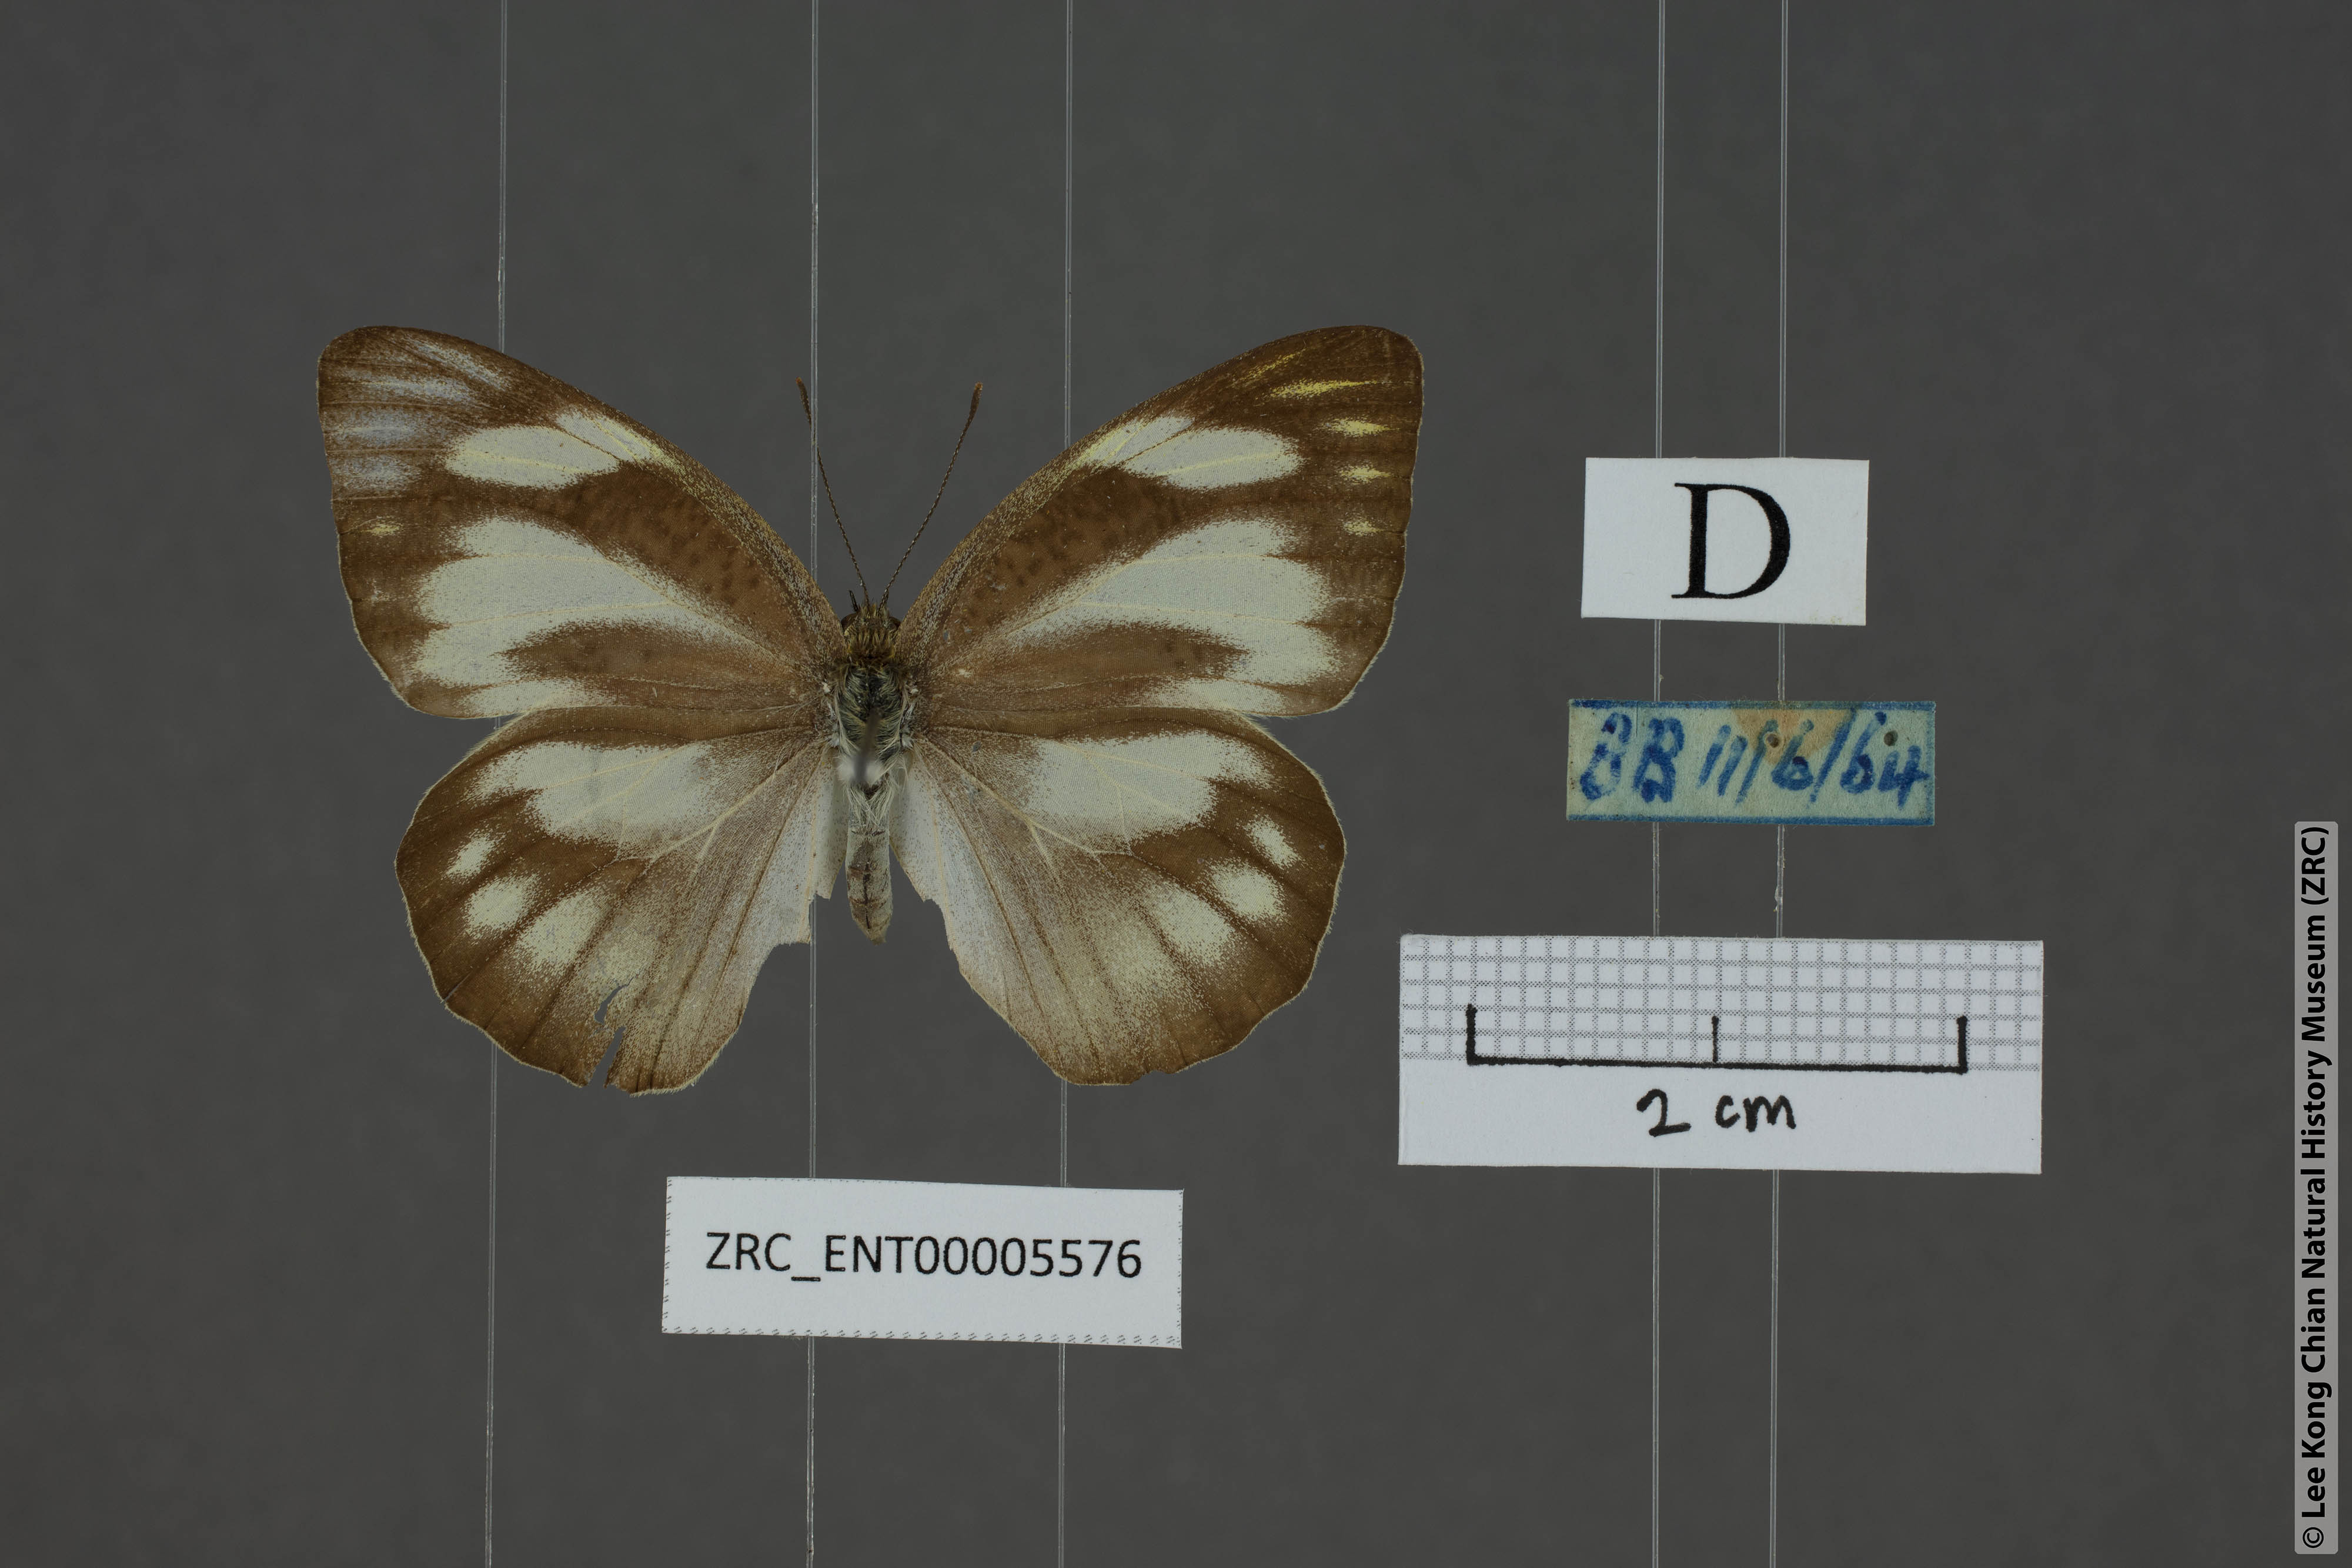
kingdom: Animalia
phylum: Arthropoda
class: Insecta
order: Lepidoptera
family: Pieridae
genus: Appias
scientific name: Appias libythea
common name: Striped albatross
